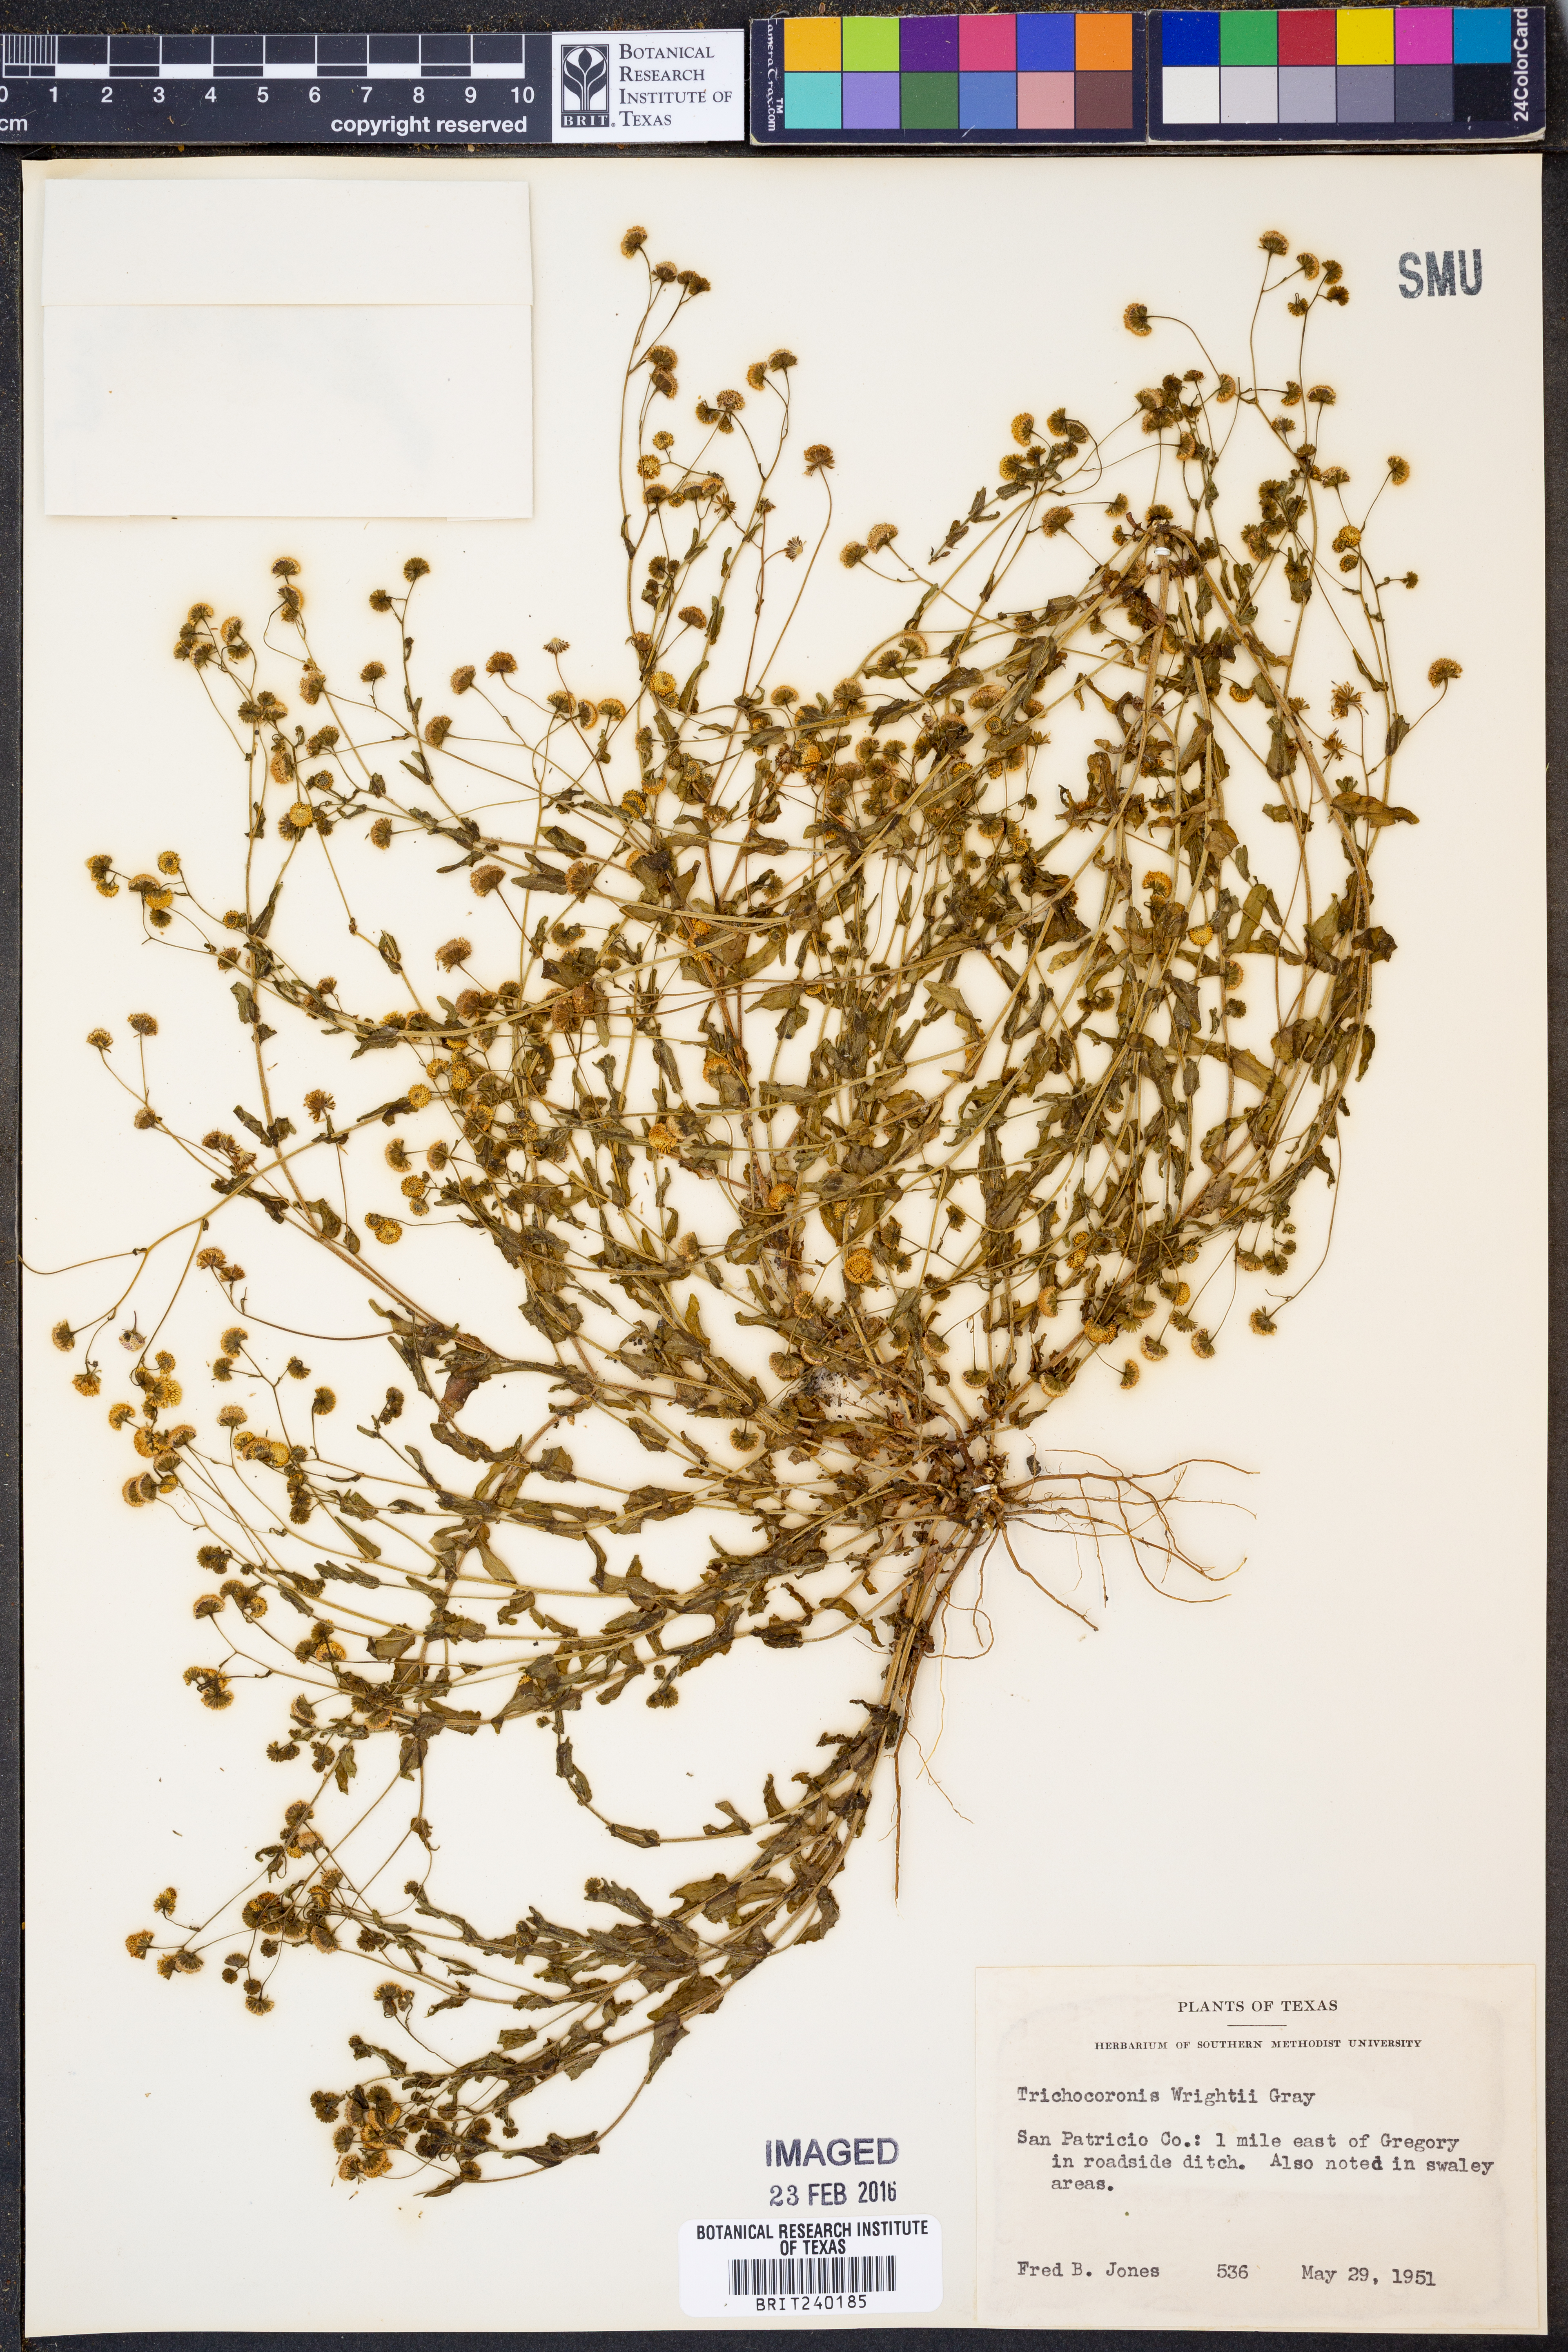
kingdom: Plantae
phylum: Tracheophyta
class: Magnoliopsida
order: Asterales
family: Asteraceae
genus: Trichocoronis
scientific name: Trichocoronis wrightii
